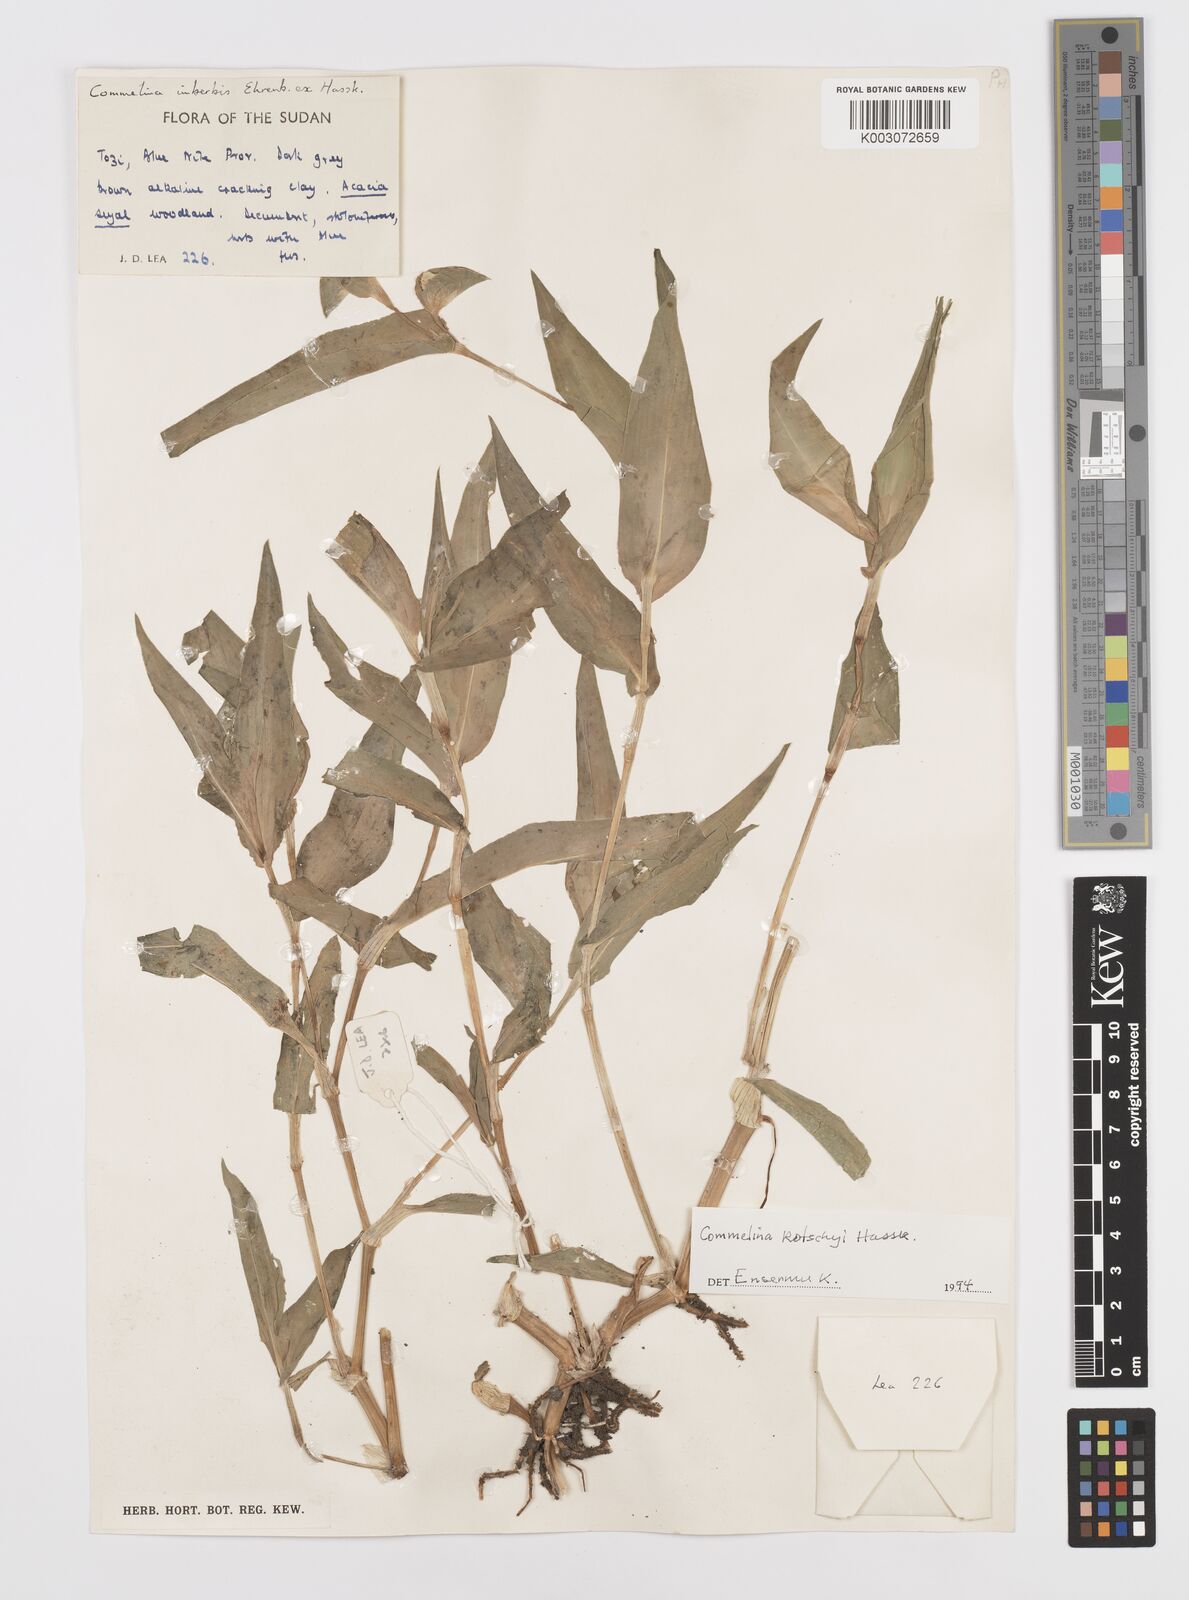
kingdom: Plantae
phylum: Tracheophyta
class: Liliopsida
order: Commelinales
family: Commelinaceae
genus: Commelina
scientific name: Commelina kotschyi
